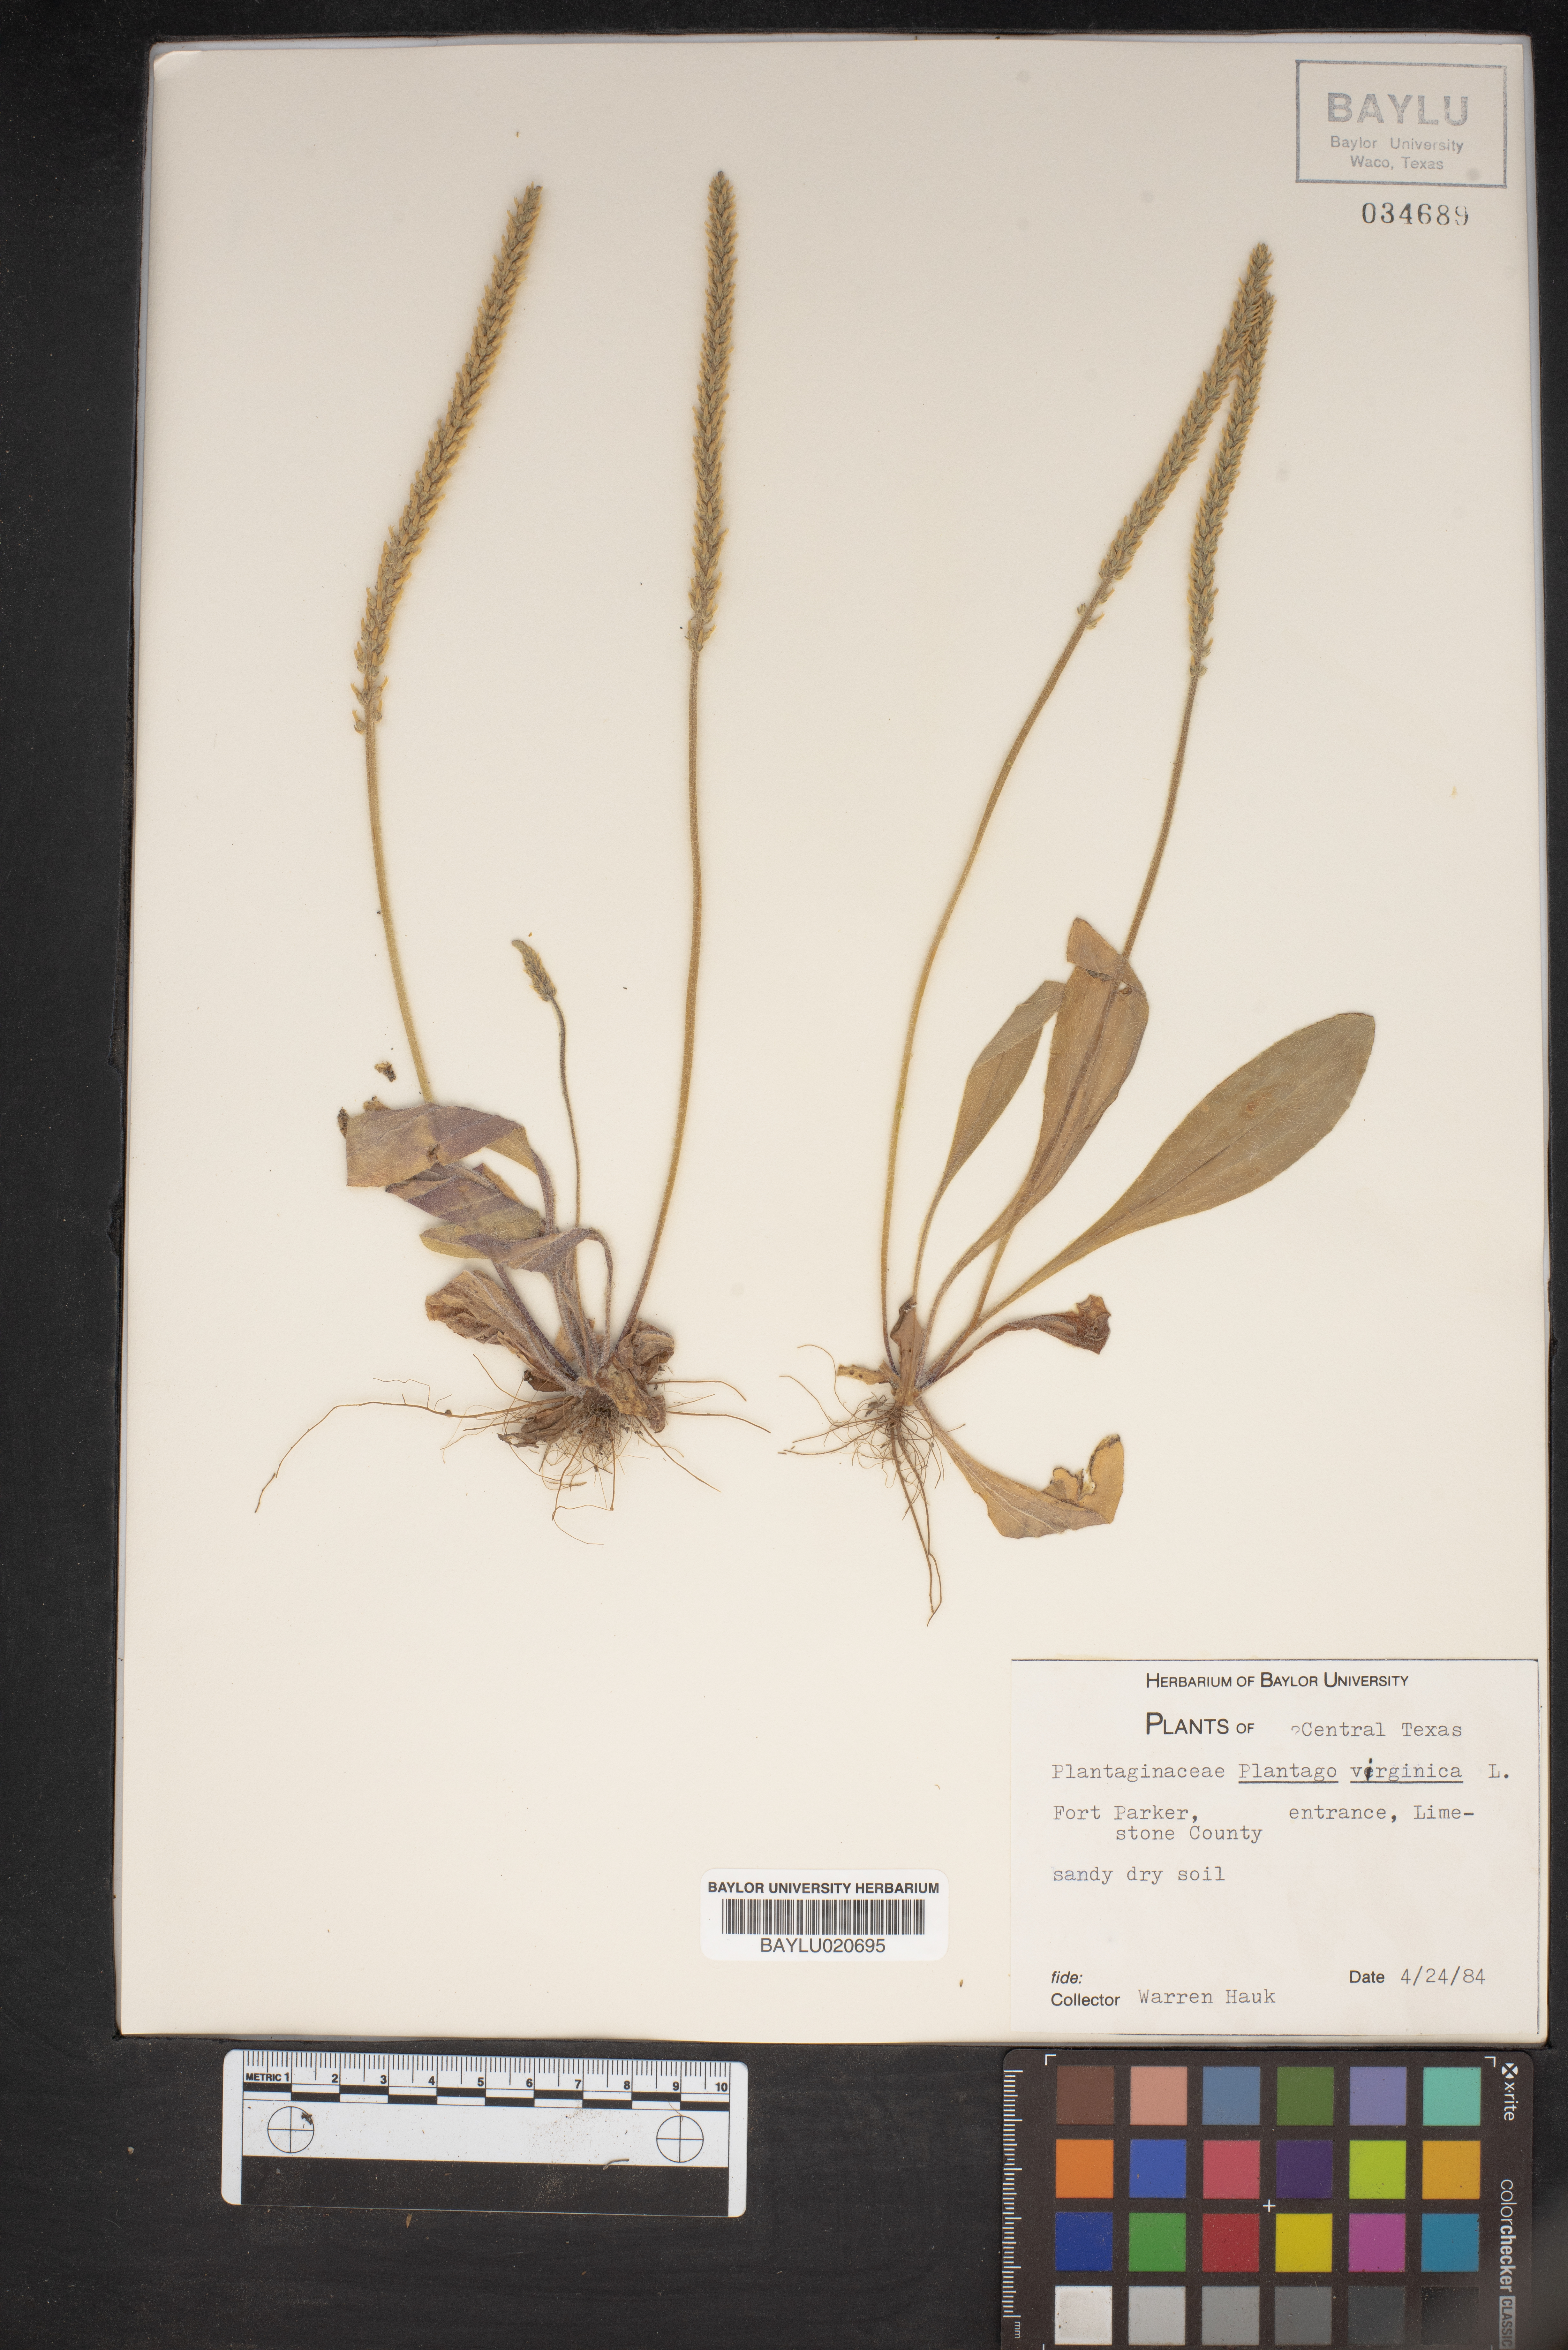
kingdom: Plantae
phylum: Tracheophyta
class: Magnoliopsida
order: Lamiales
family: Plantaginaceae
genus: Plantago
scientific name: Plantago virginica
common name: Hoary plantain
